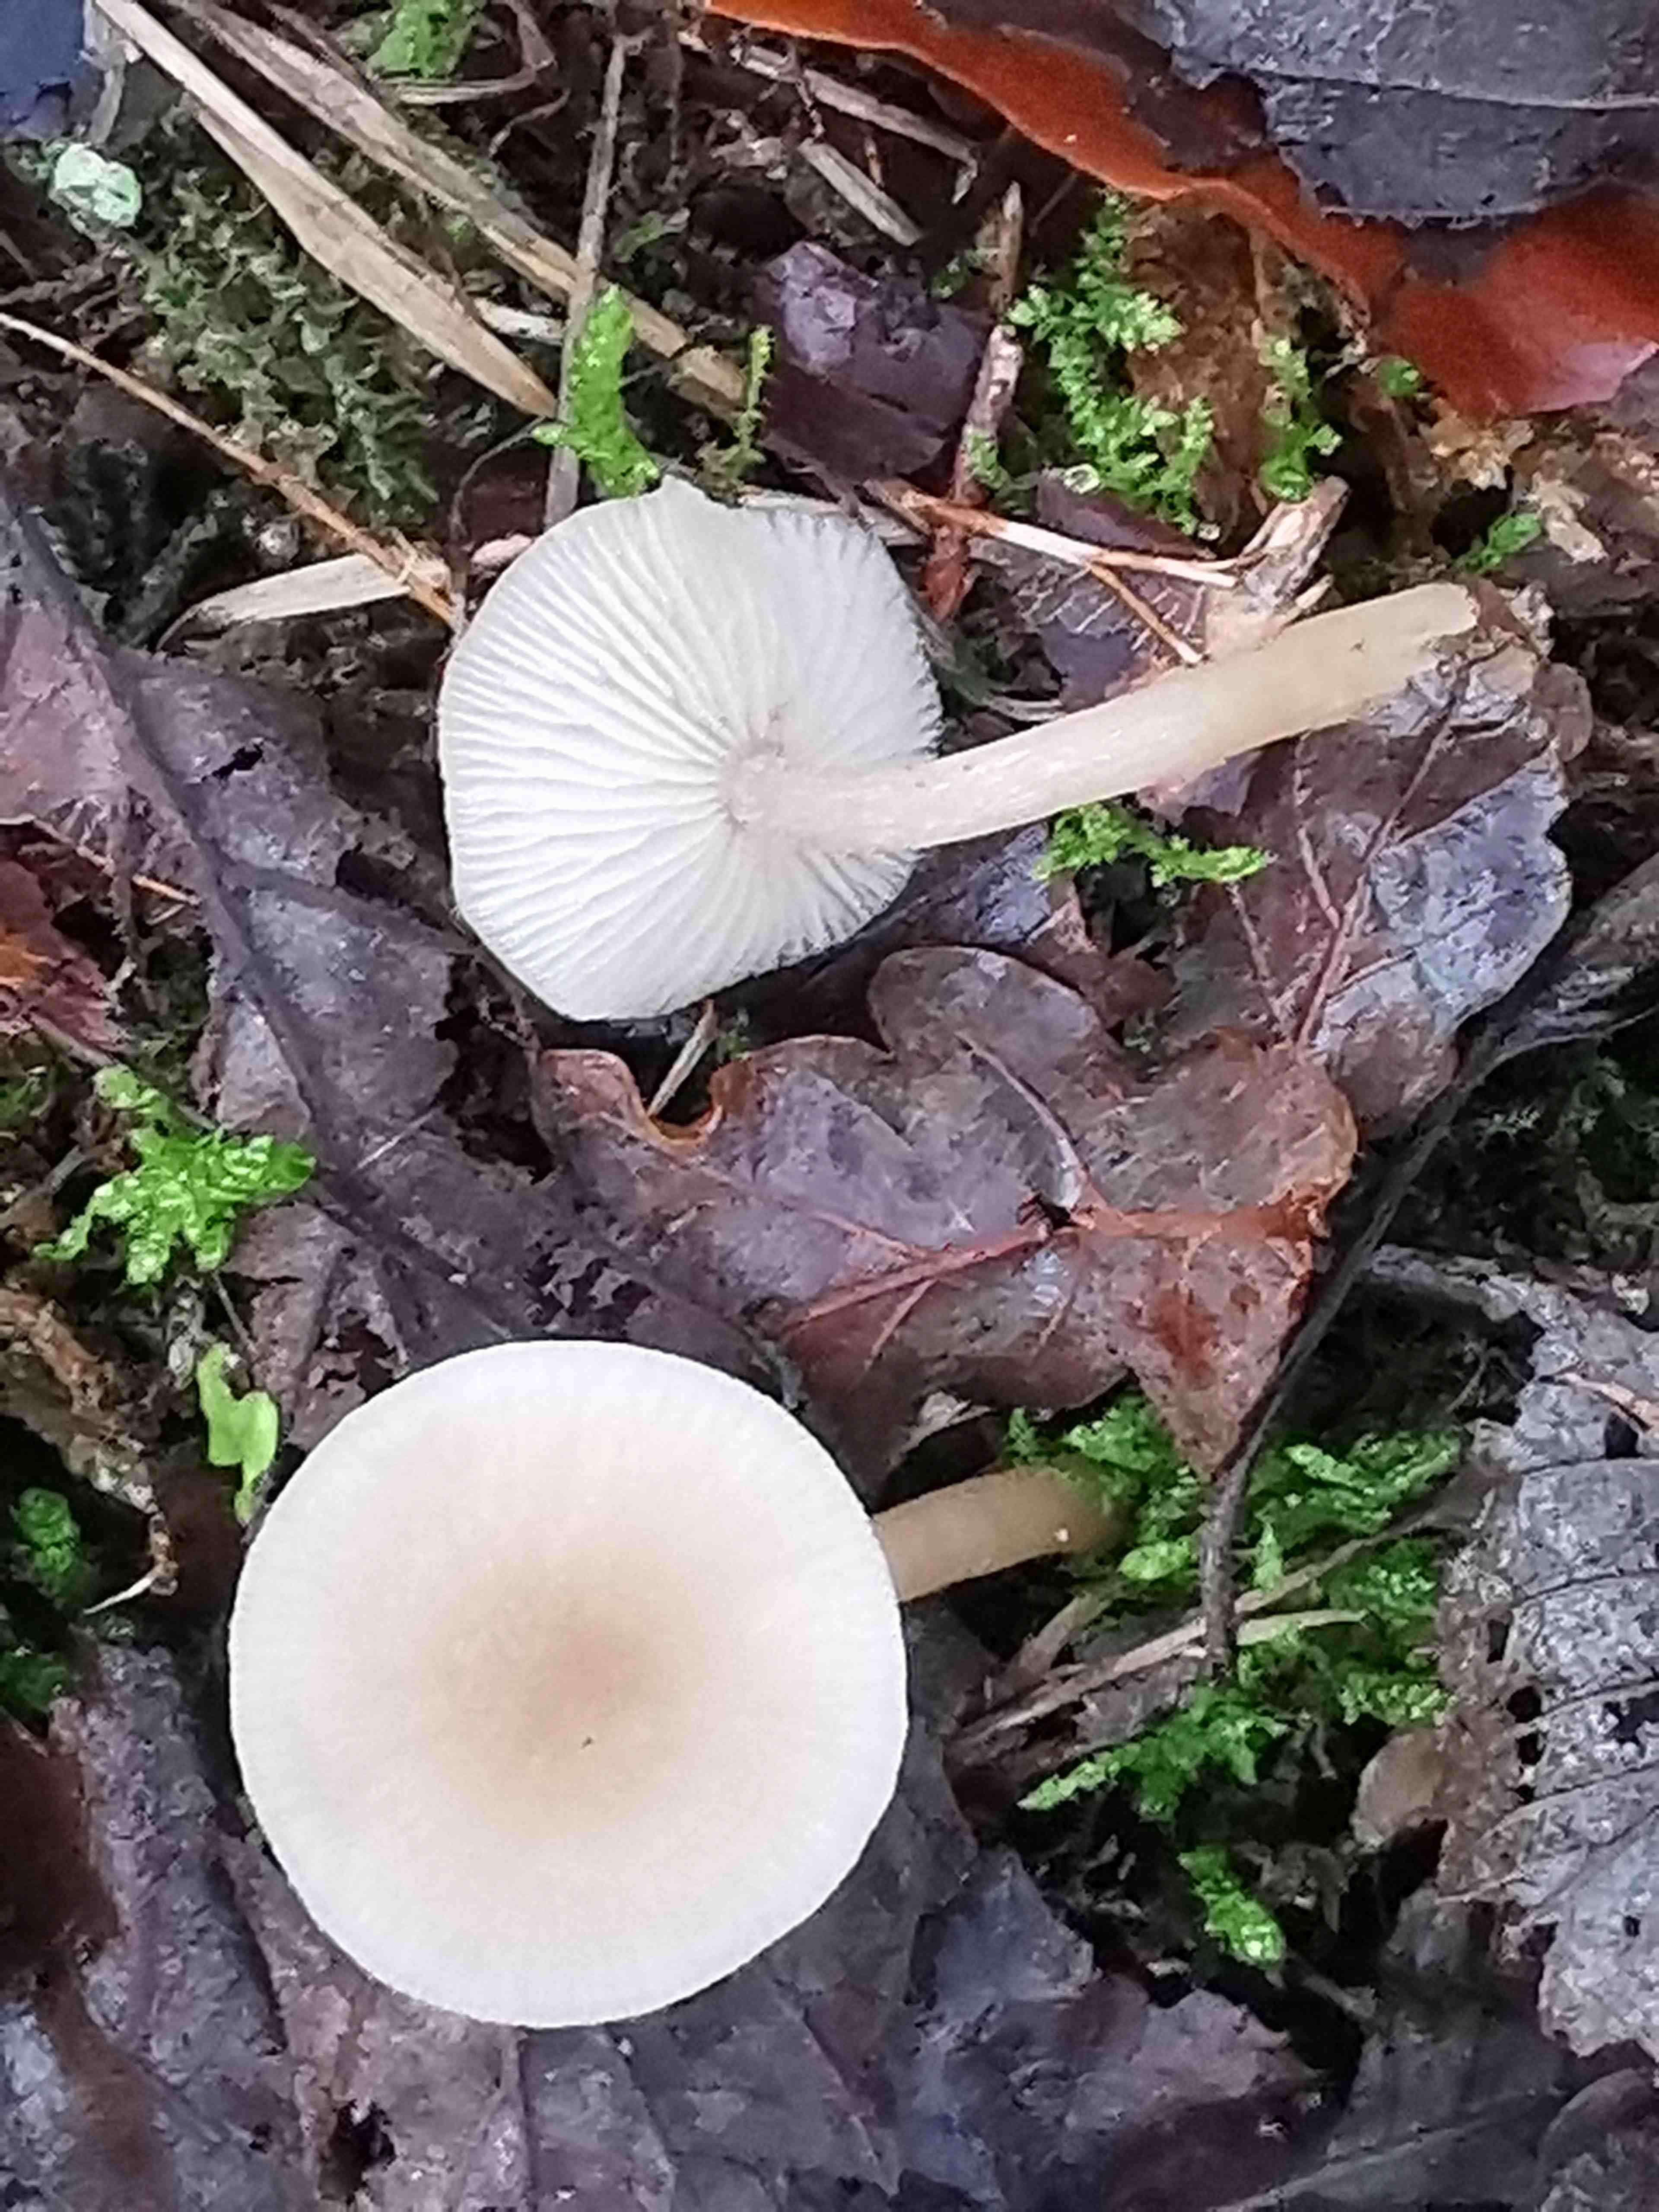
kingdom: Fungi
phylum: Basidiomycota
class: Agaricomycetes
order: Agaricales
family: Tricholomataceae
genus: Clitocybe
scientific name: Clitocybe fragrans
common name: vellugtende tragthat
